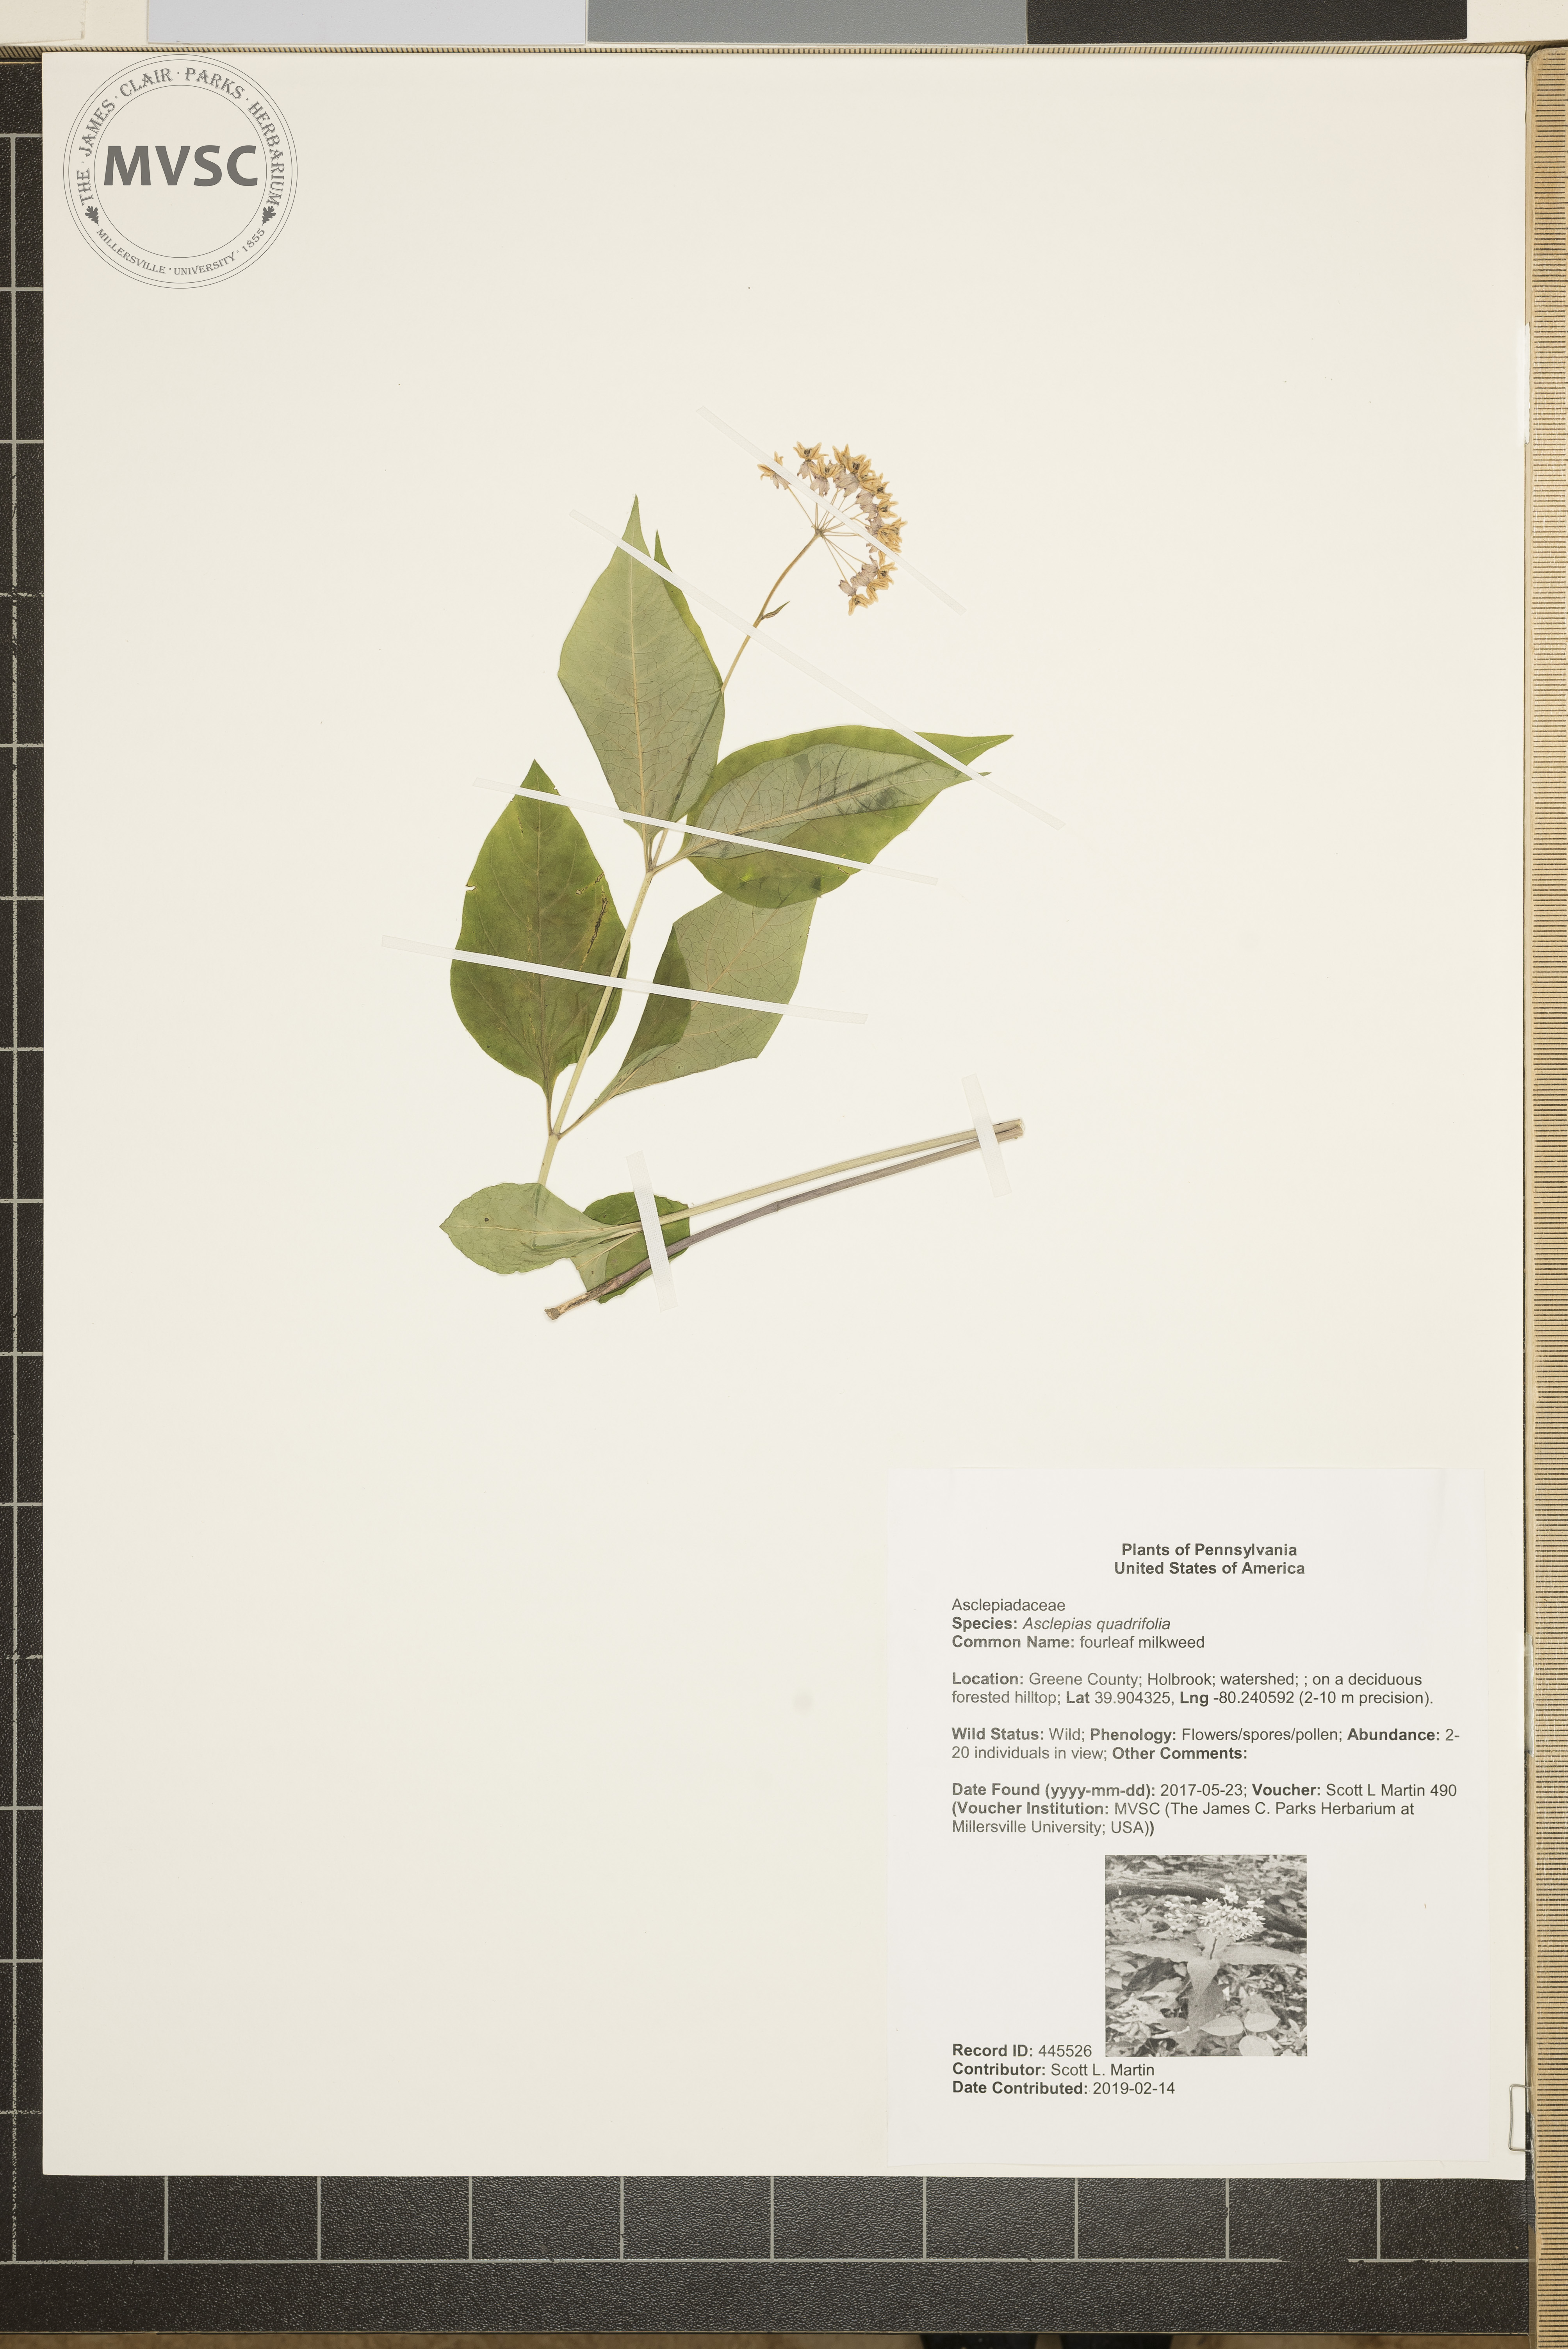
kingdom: Plantae
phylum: Tracheophyta
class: Magnoliopsida
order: Gentianales
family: Apocynaceae
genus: Asclepias
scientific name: Asclepias quadrifolia
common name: fourleaf milkweed
